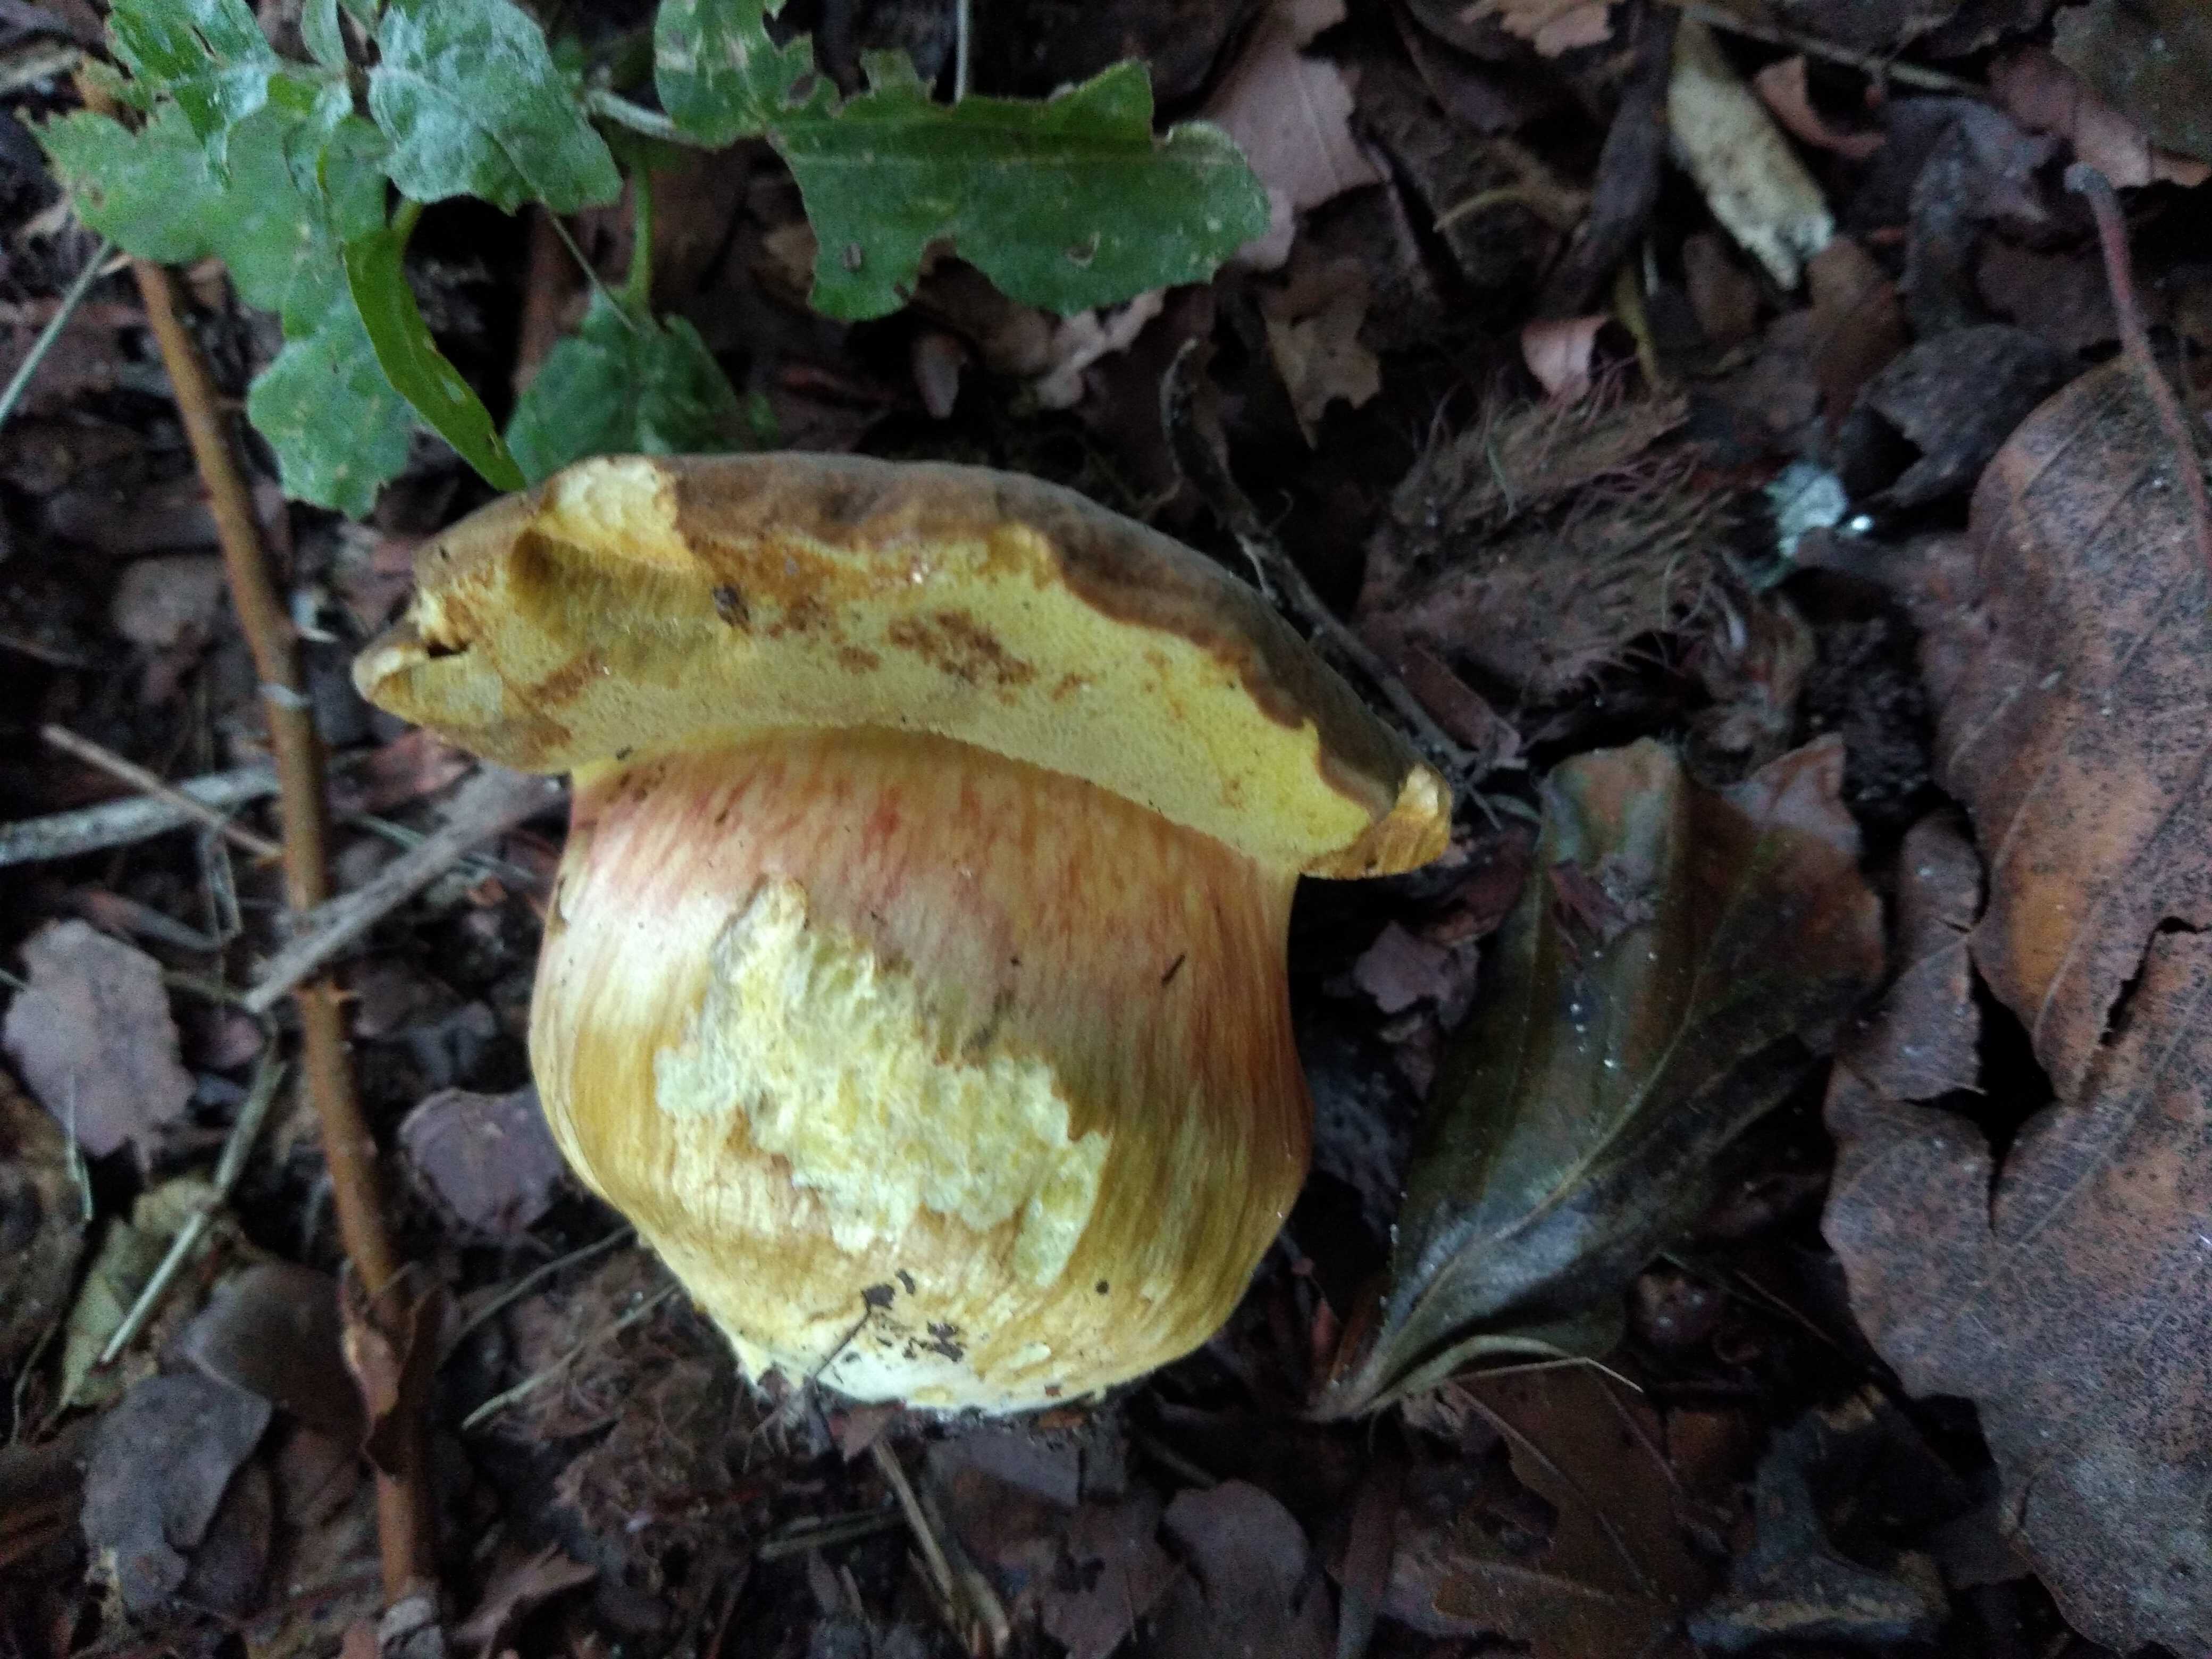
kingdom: Fungi
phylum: Basidiomycota
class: Agaricomycetes
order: Boletales
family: Boletaceae
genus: Hortiboletus
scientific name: Hortiboletus engelii
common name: fersken-rørhat
